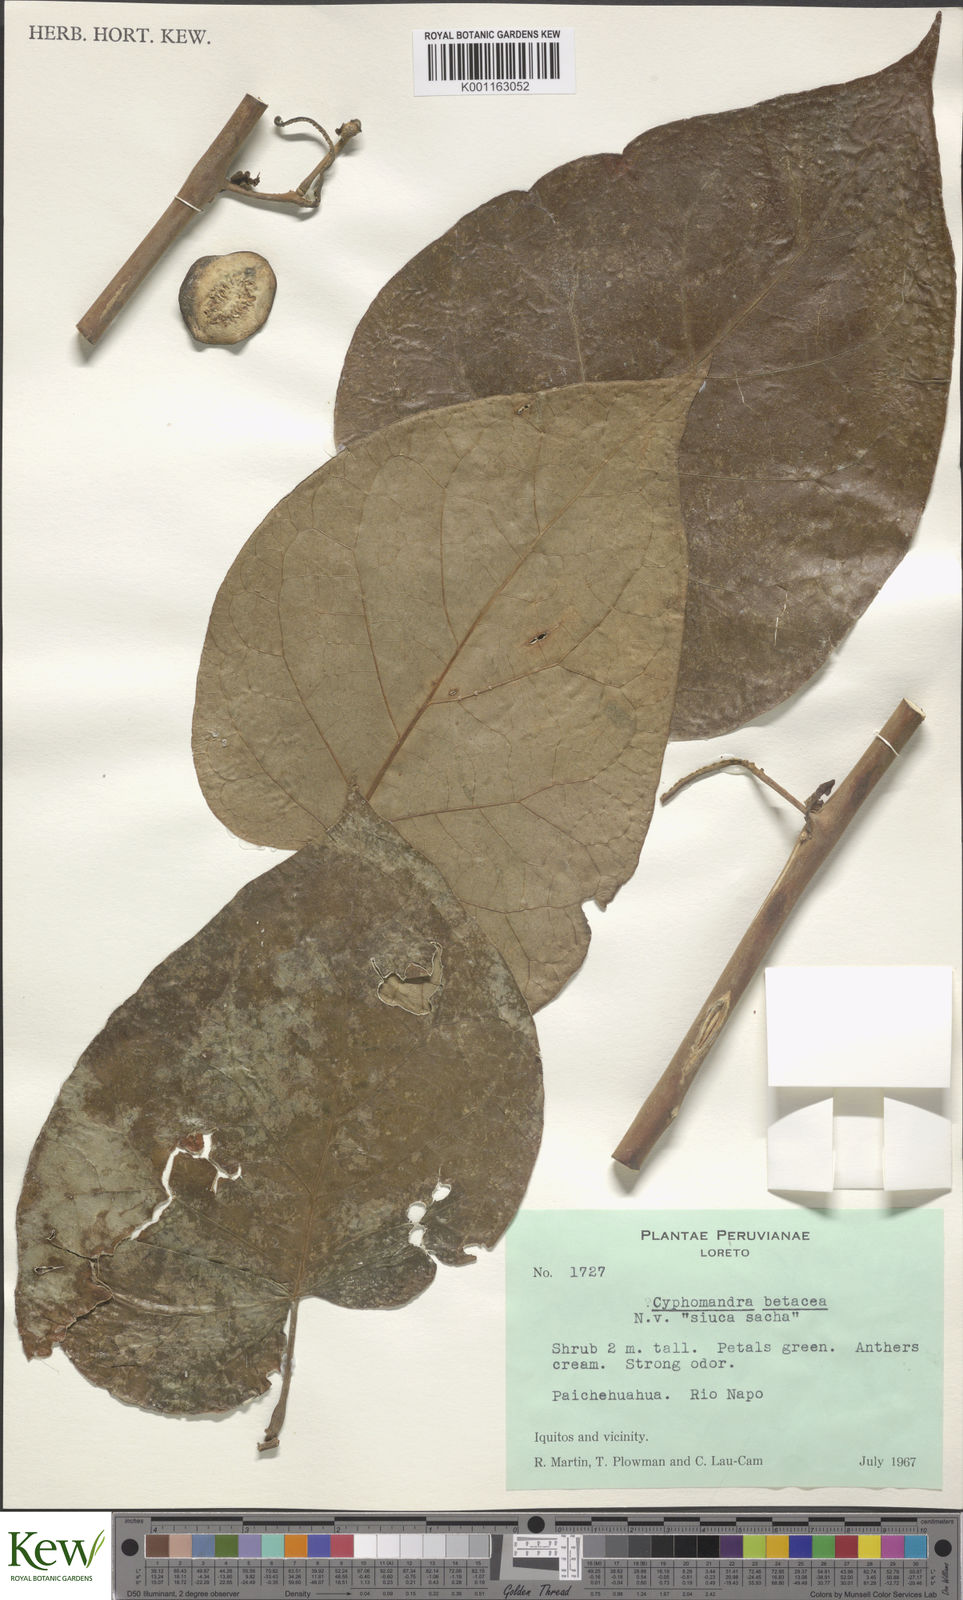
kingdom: Plantae
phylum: Tracheophyta
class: Magnoliopsida
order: Solanales
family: Solanaceae
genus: Solanum
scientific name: Solanum betaceum
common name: Tamarillo
